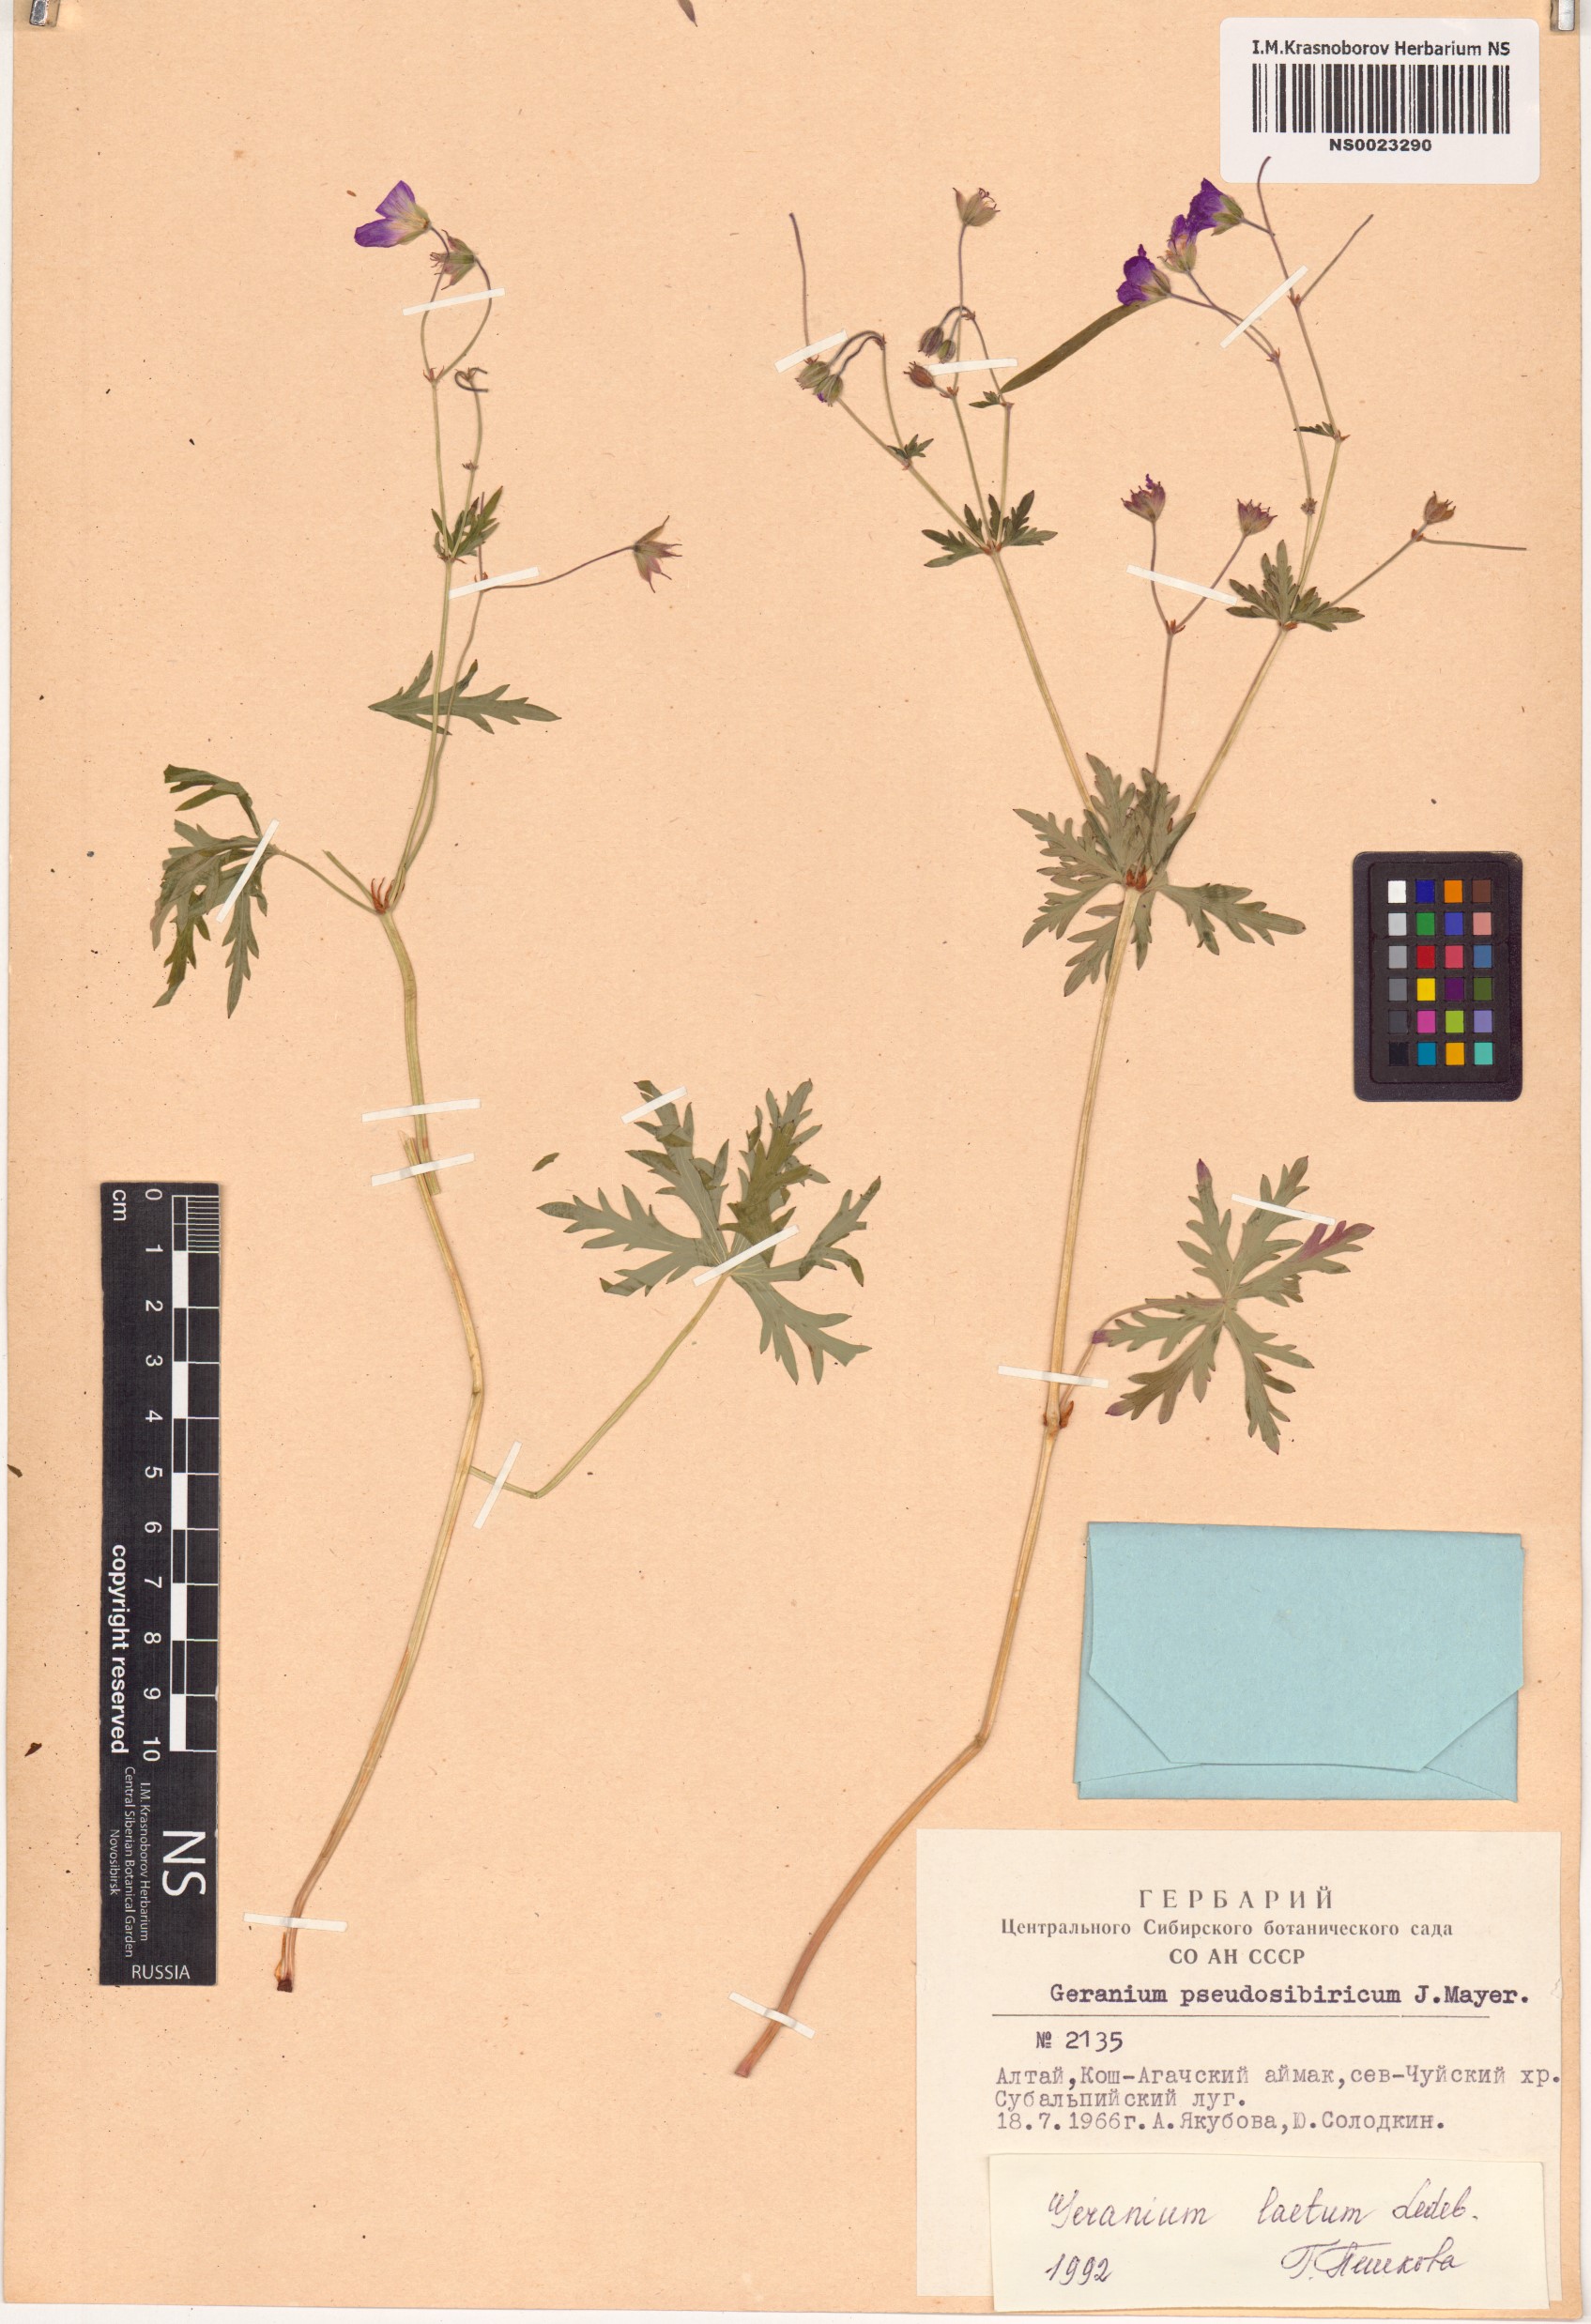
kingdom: Plantae
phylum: Tracheophyta
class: Magnoliopsida
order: Geraniales
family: Geraniaceae
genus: Geranium
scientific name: Geranium pseudosibiricum
